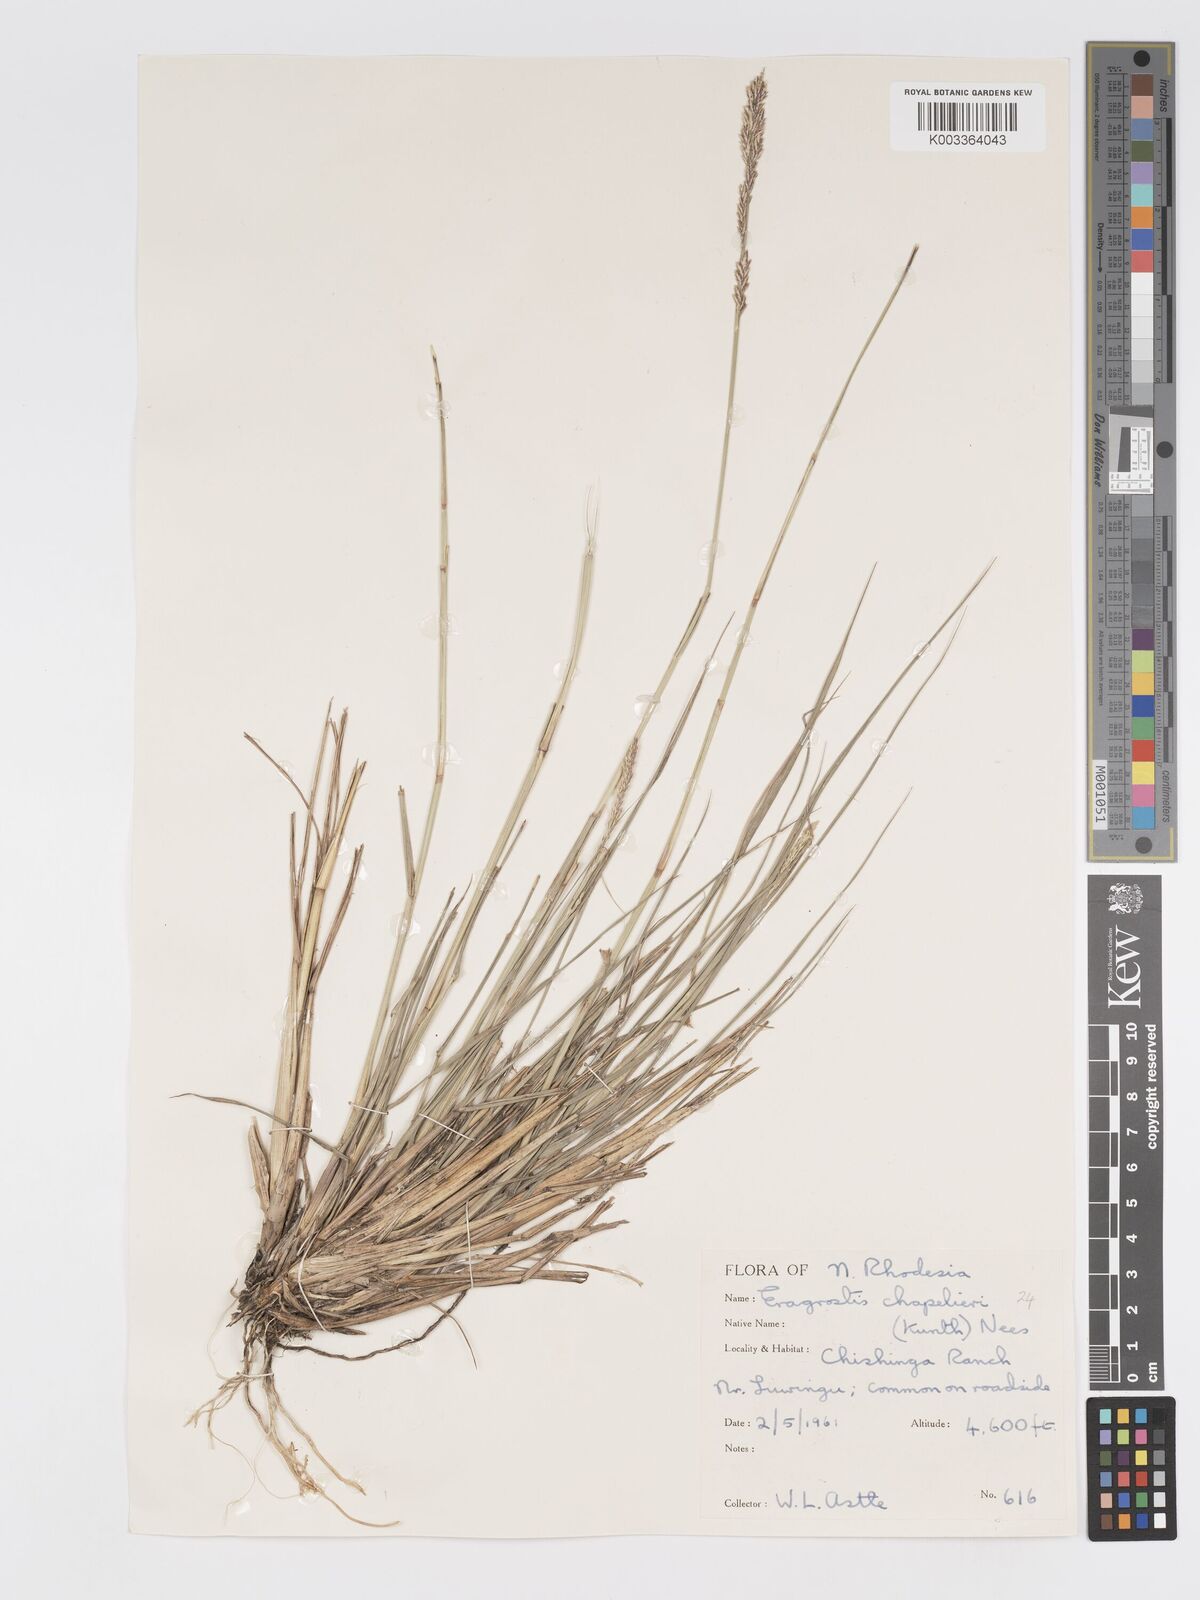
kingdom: Plantae
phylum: Tracheophyta
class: Liliopsida
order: Poales
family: Poaceae
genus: Eragrostis
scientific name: Eragrostis chapelieri
